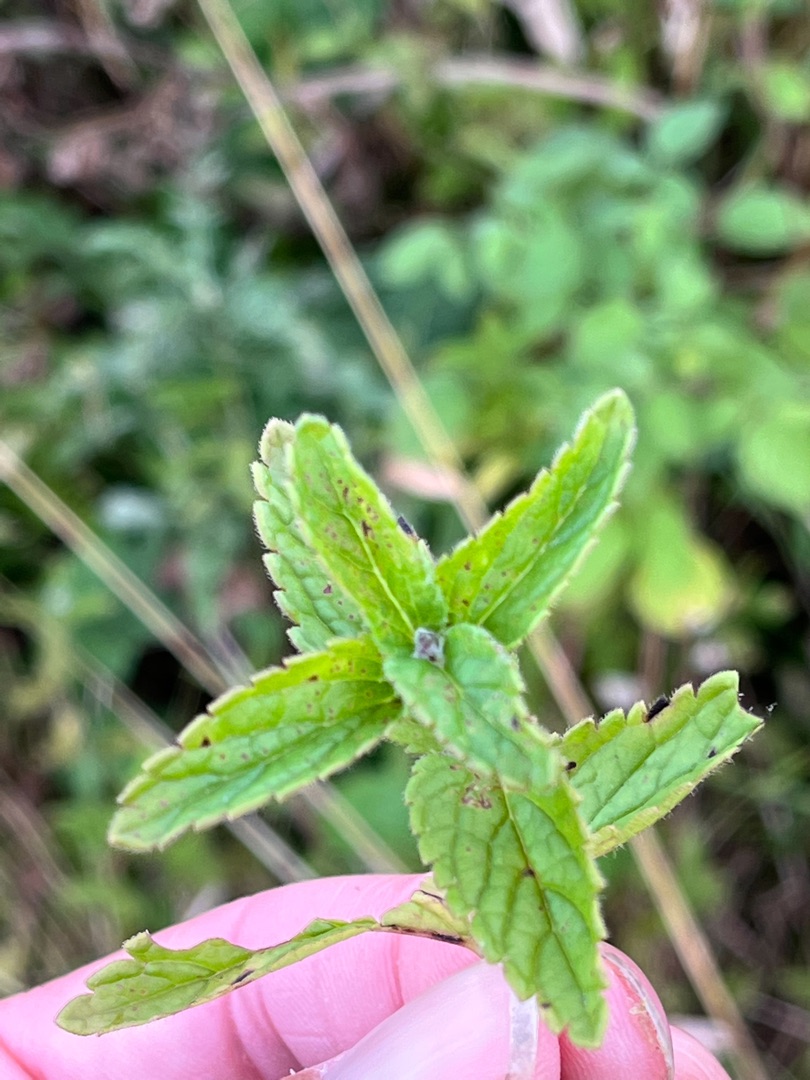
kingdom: Plantae
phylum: Tracheophyta
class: Magnoliopsida
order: Lamiales
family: Plantaginaceae
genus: Veronica
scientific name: Veronica chamaedrys
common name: Tveskægget ærenpris
